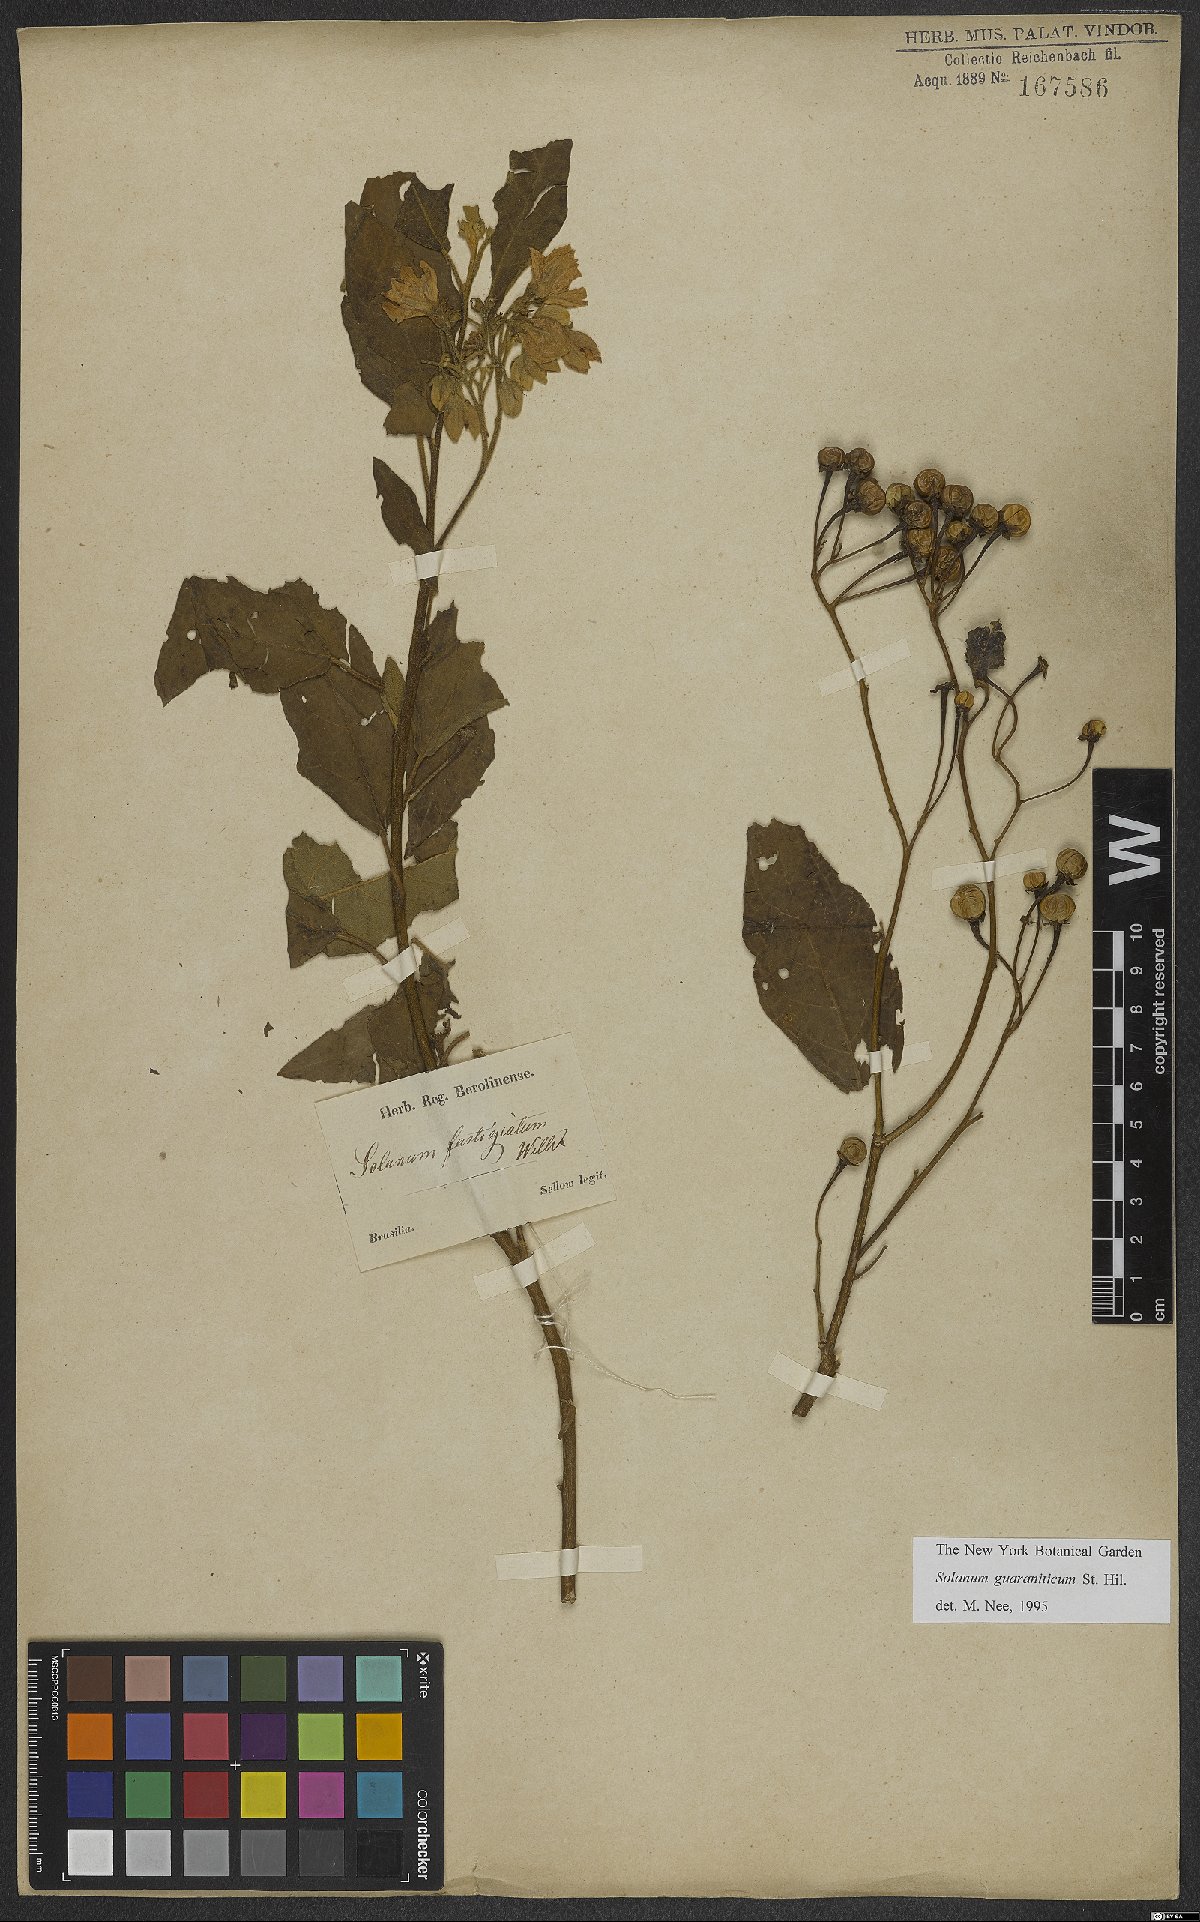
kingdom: Plantae
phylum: Tracheophyta
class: Magnoliopsida
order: Solanales
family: Solanaceae
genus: Solanum
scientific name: Solanum guaraniticum
